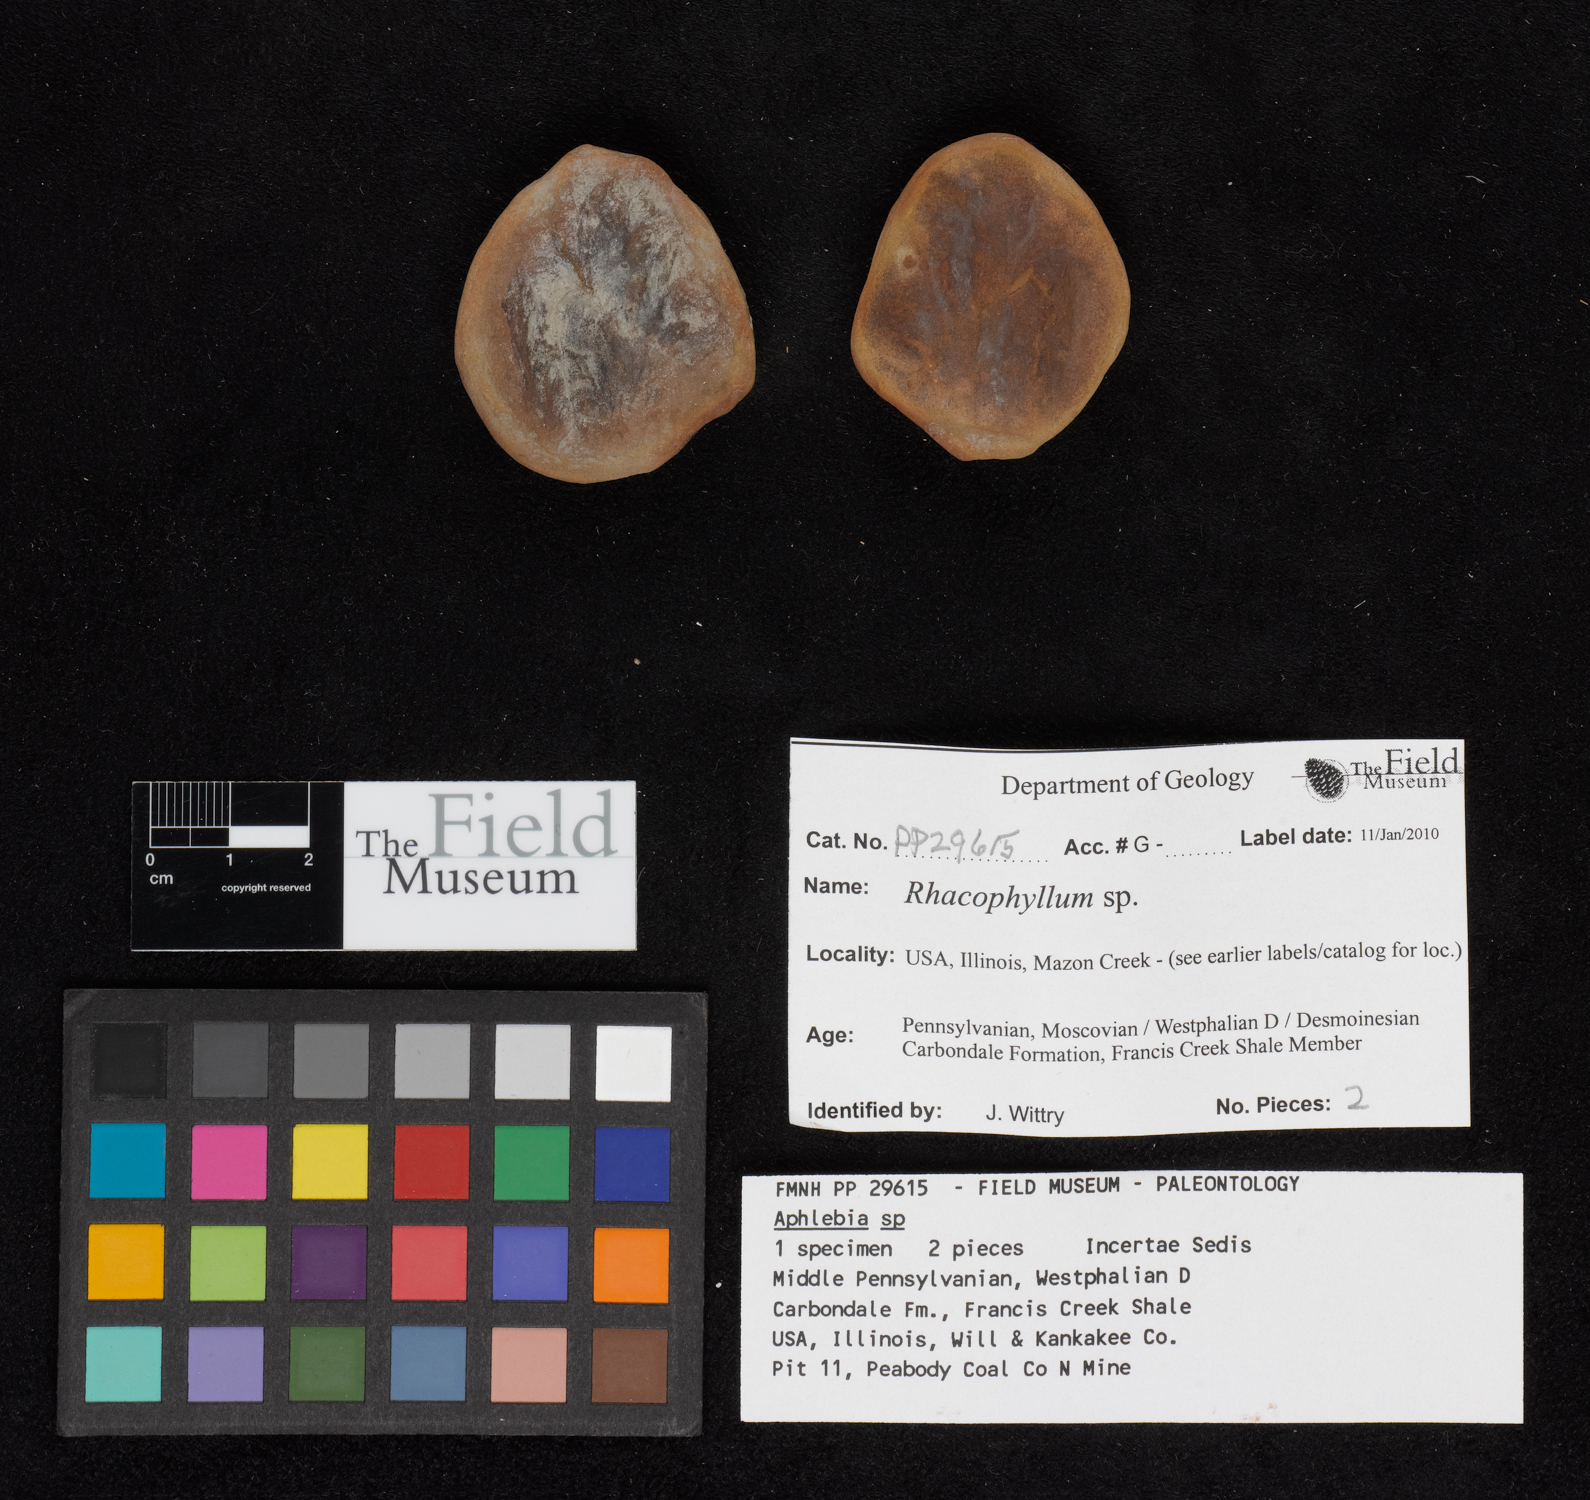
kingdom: Plantae
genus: Rhacophyllum
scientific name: Rhacophyllum
